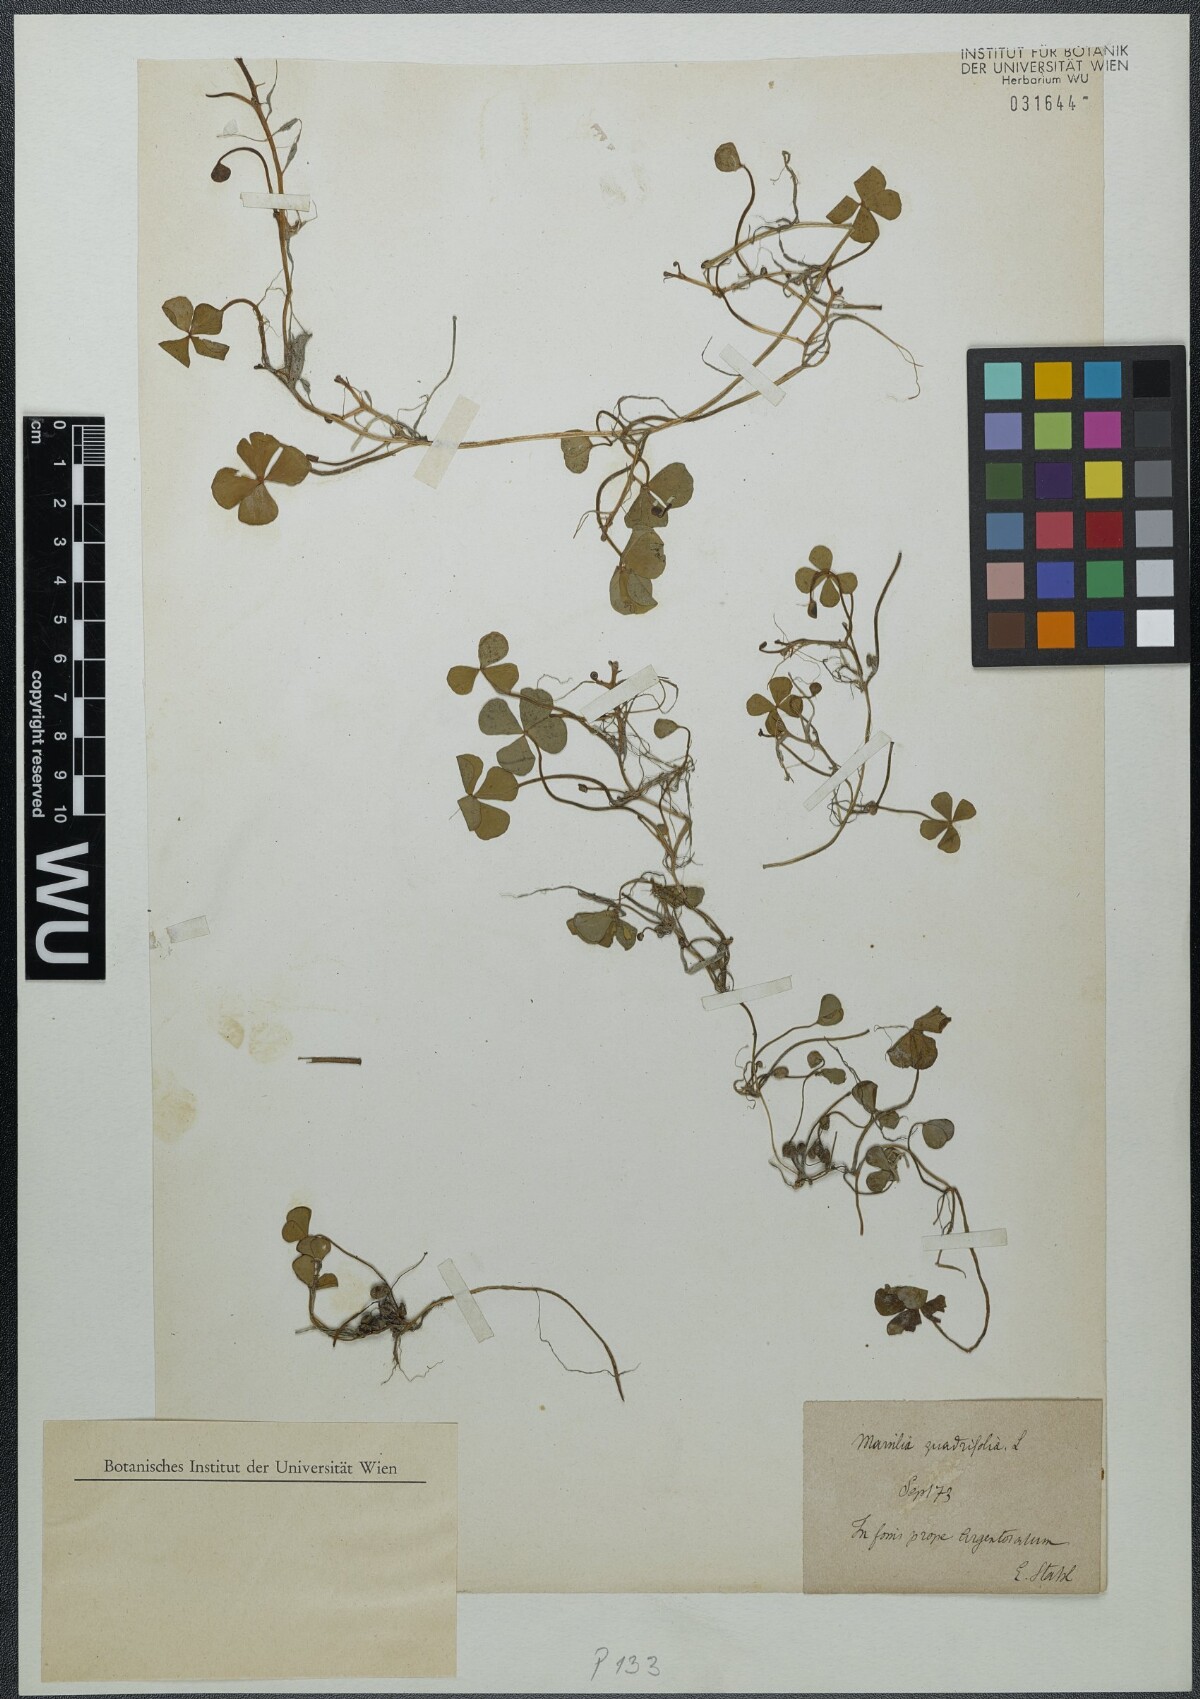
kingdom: Plantae
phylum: Tracheophyta
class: Polypodiopsida
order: Salviniales
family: Marsileaceae
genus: Marsilea
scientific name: Marsilea quadrifolia
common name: Water shamrock
